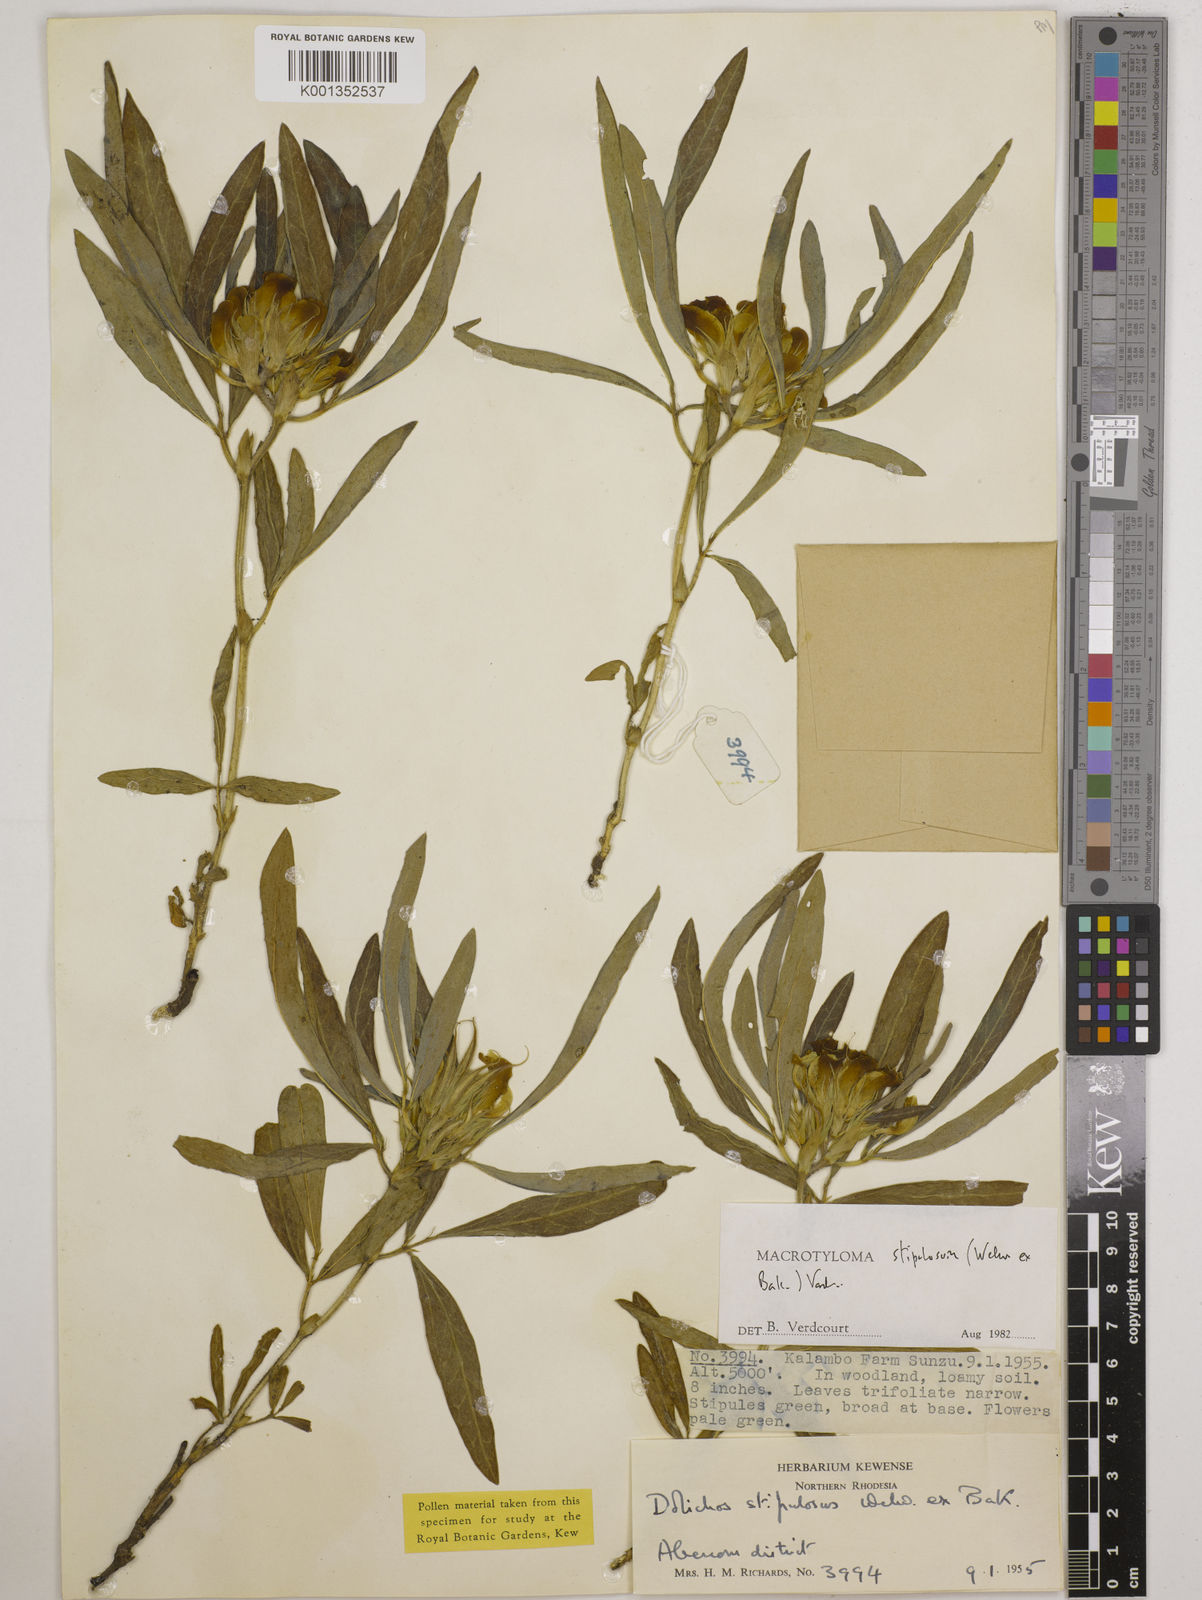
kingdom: Plantae
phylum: Tracheophyta
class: Magnoliopsida
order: Fabales
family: Fabaceae
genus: Macrotyloma
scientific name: Macrotyloma stipulosum
